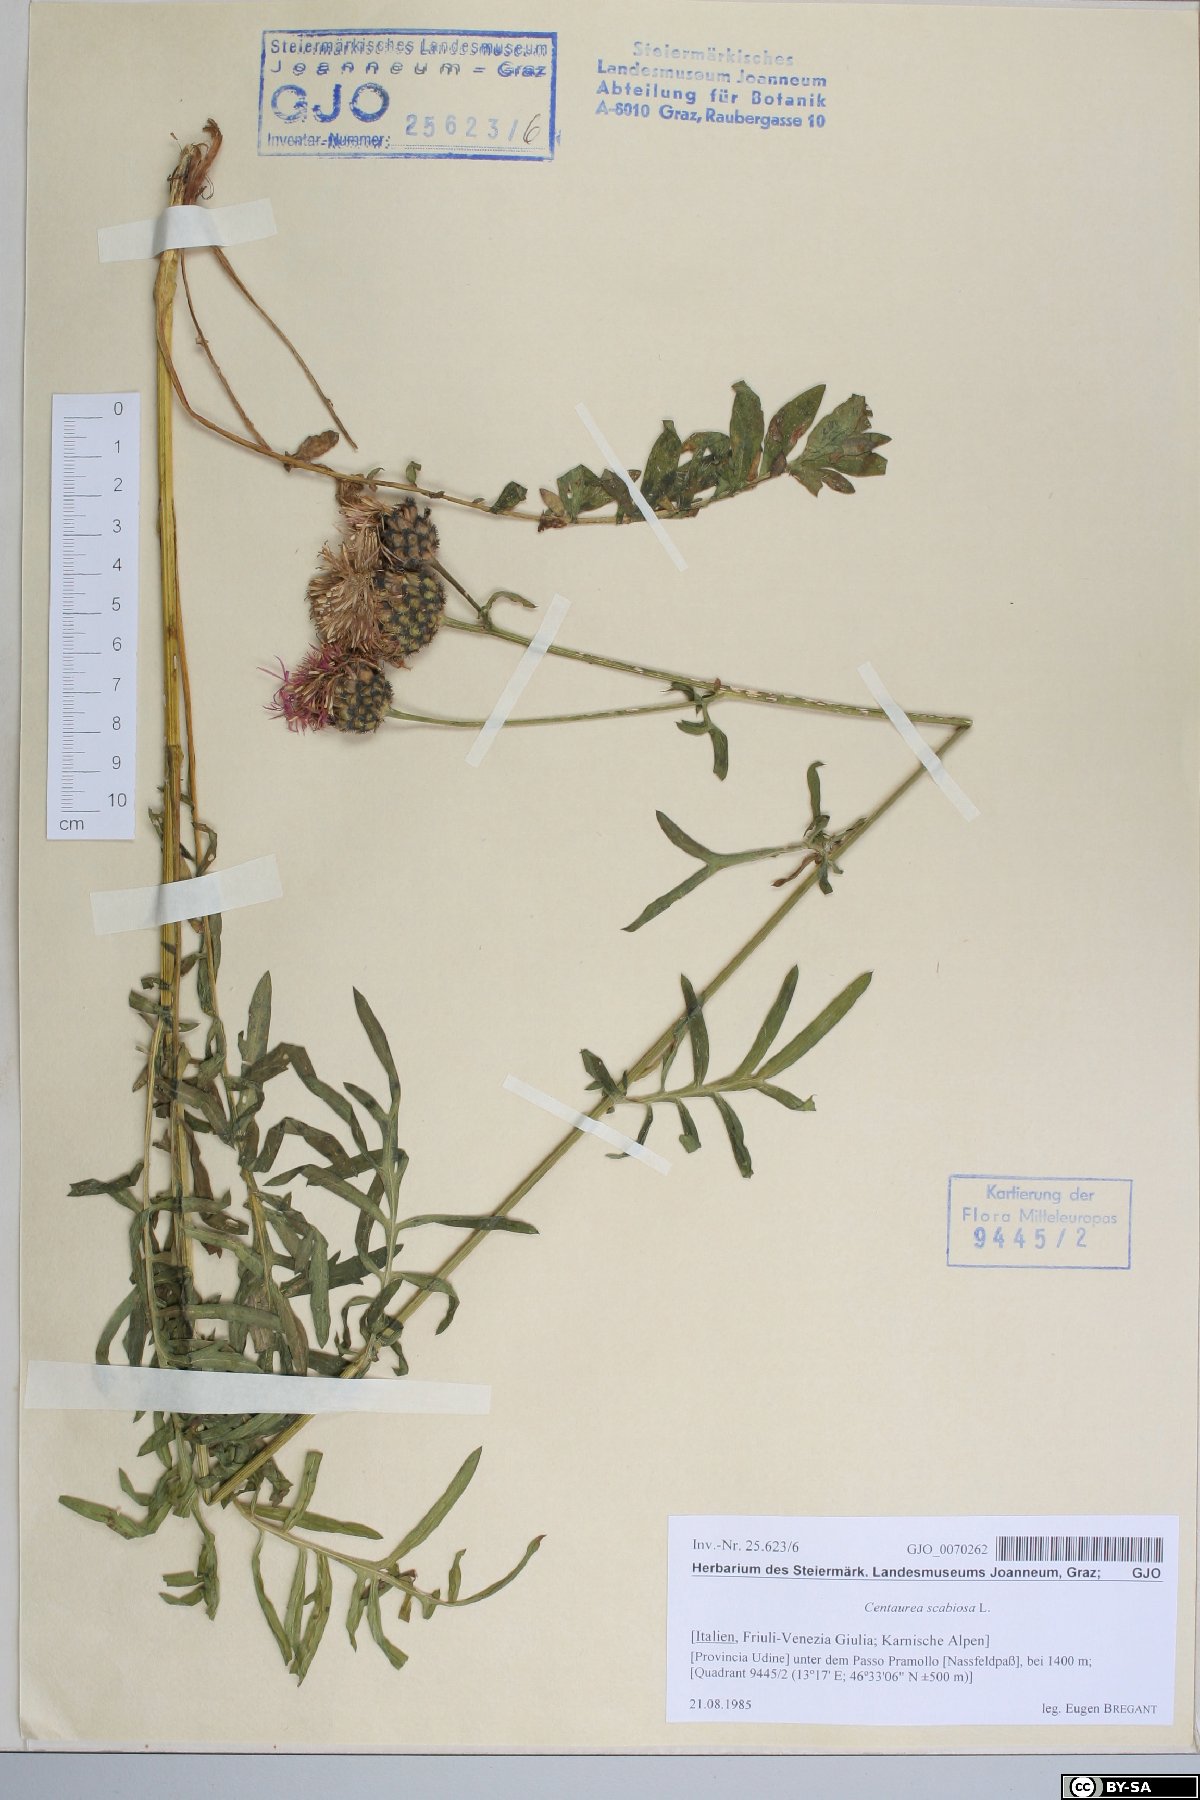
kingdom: Plantae
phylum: Tracheophyta
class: Magnoliopsida
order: Asterales
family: Asteraceae
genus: Centaurea
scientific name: Centaurea scabiosa
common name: Greater knapweed
